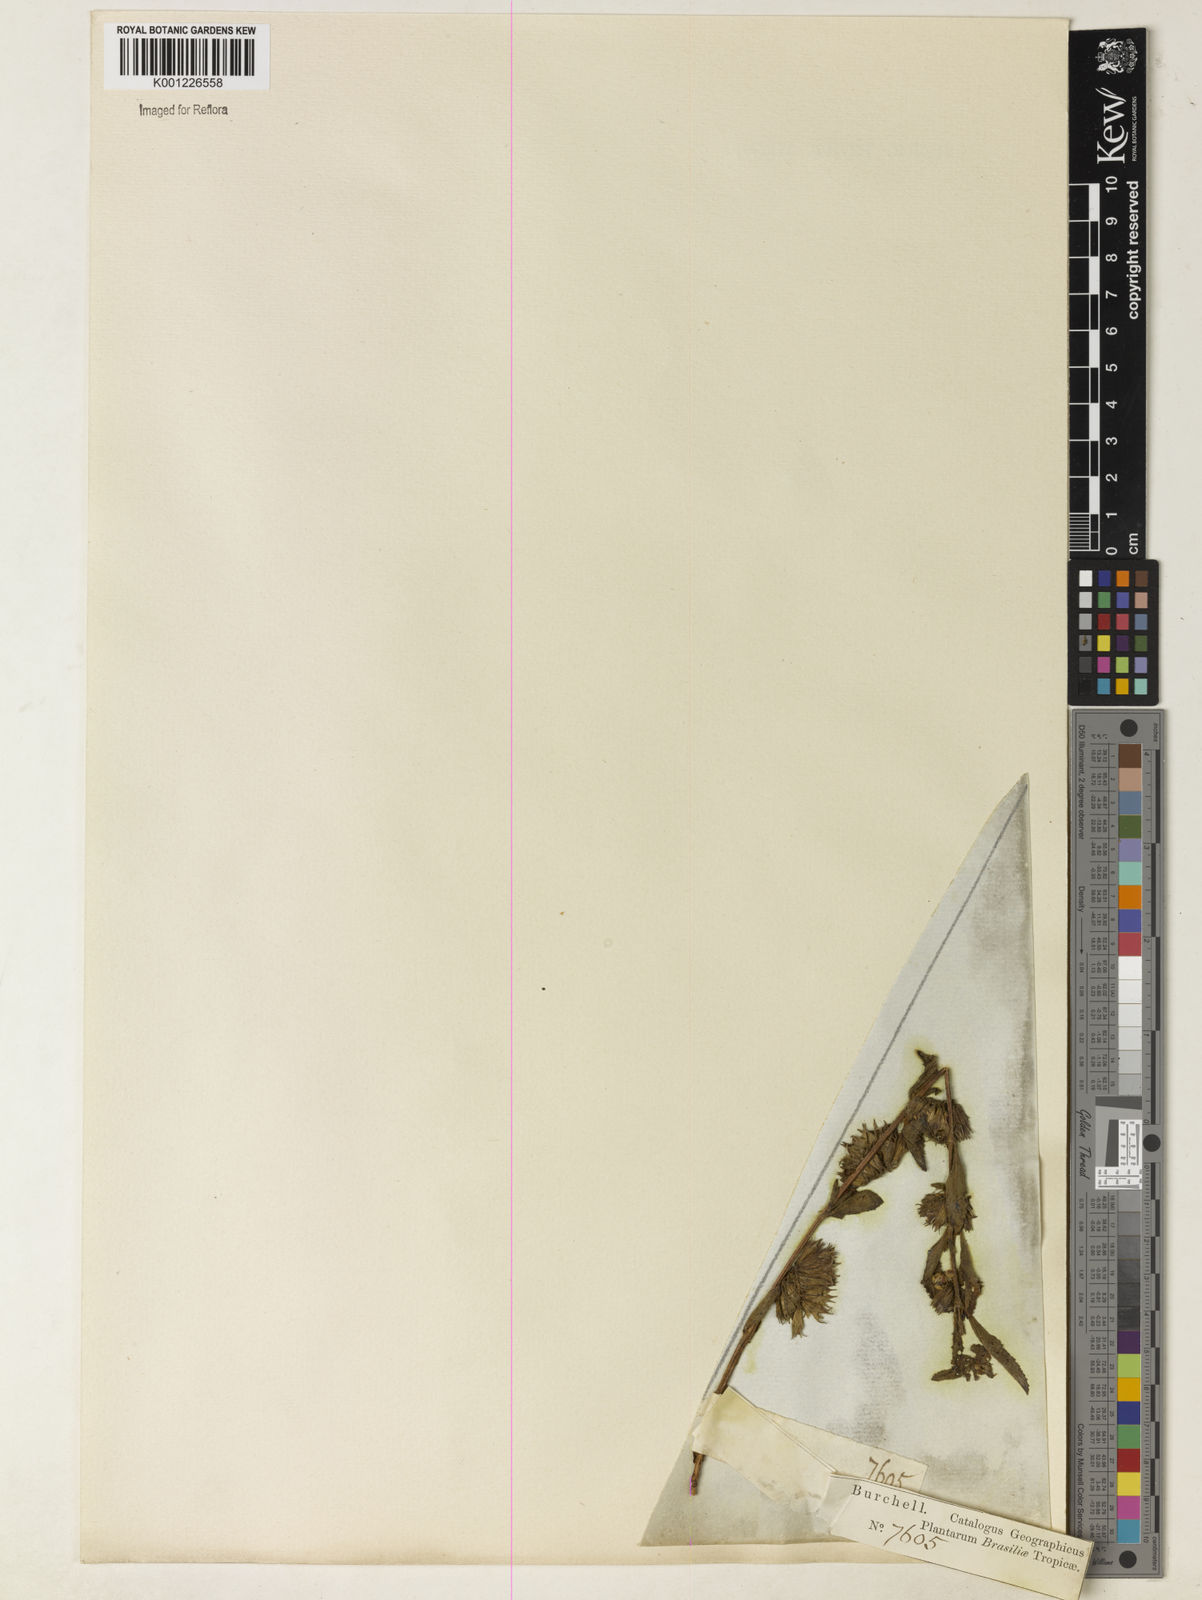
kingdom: Plantae
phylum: Tracheophyta
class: Magnoliopsida
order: Lamiales
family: Lamiaceae
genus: Marsypianthes
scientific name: Marsypianthes burchellii
